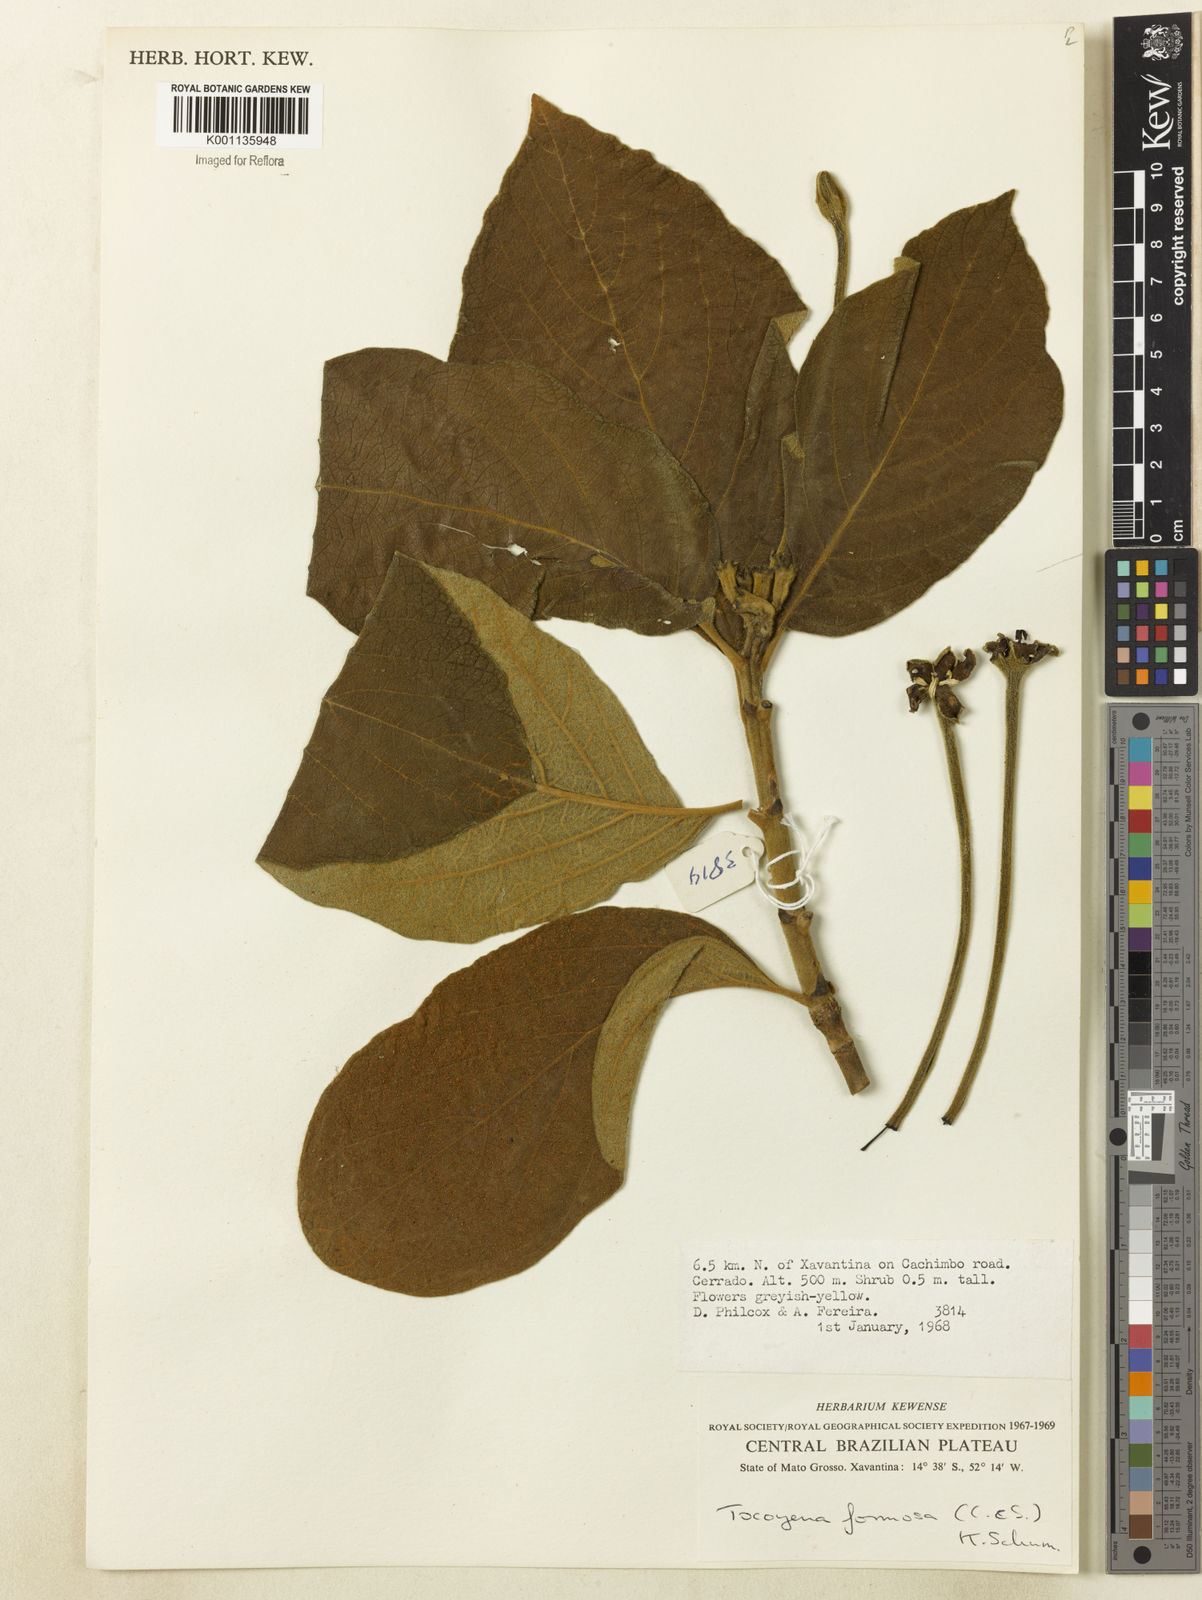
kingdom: Plantae
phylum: Tracheophyta
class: Magnoliopsida
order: Gentianales
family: Rubiaceae
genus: Tocoyena
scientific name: Tocoyena formosa
